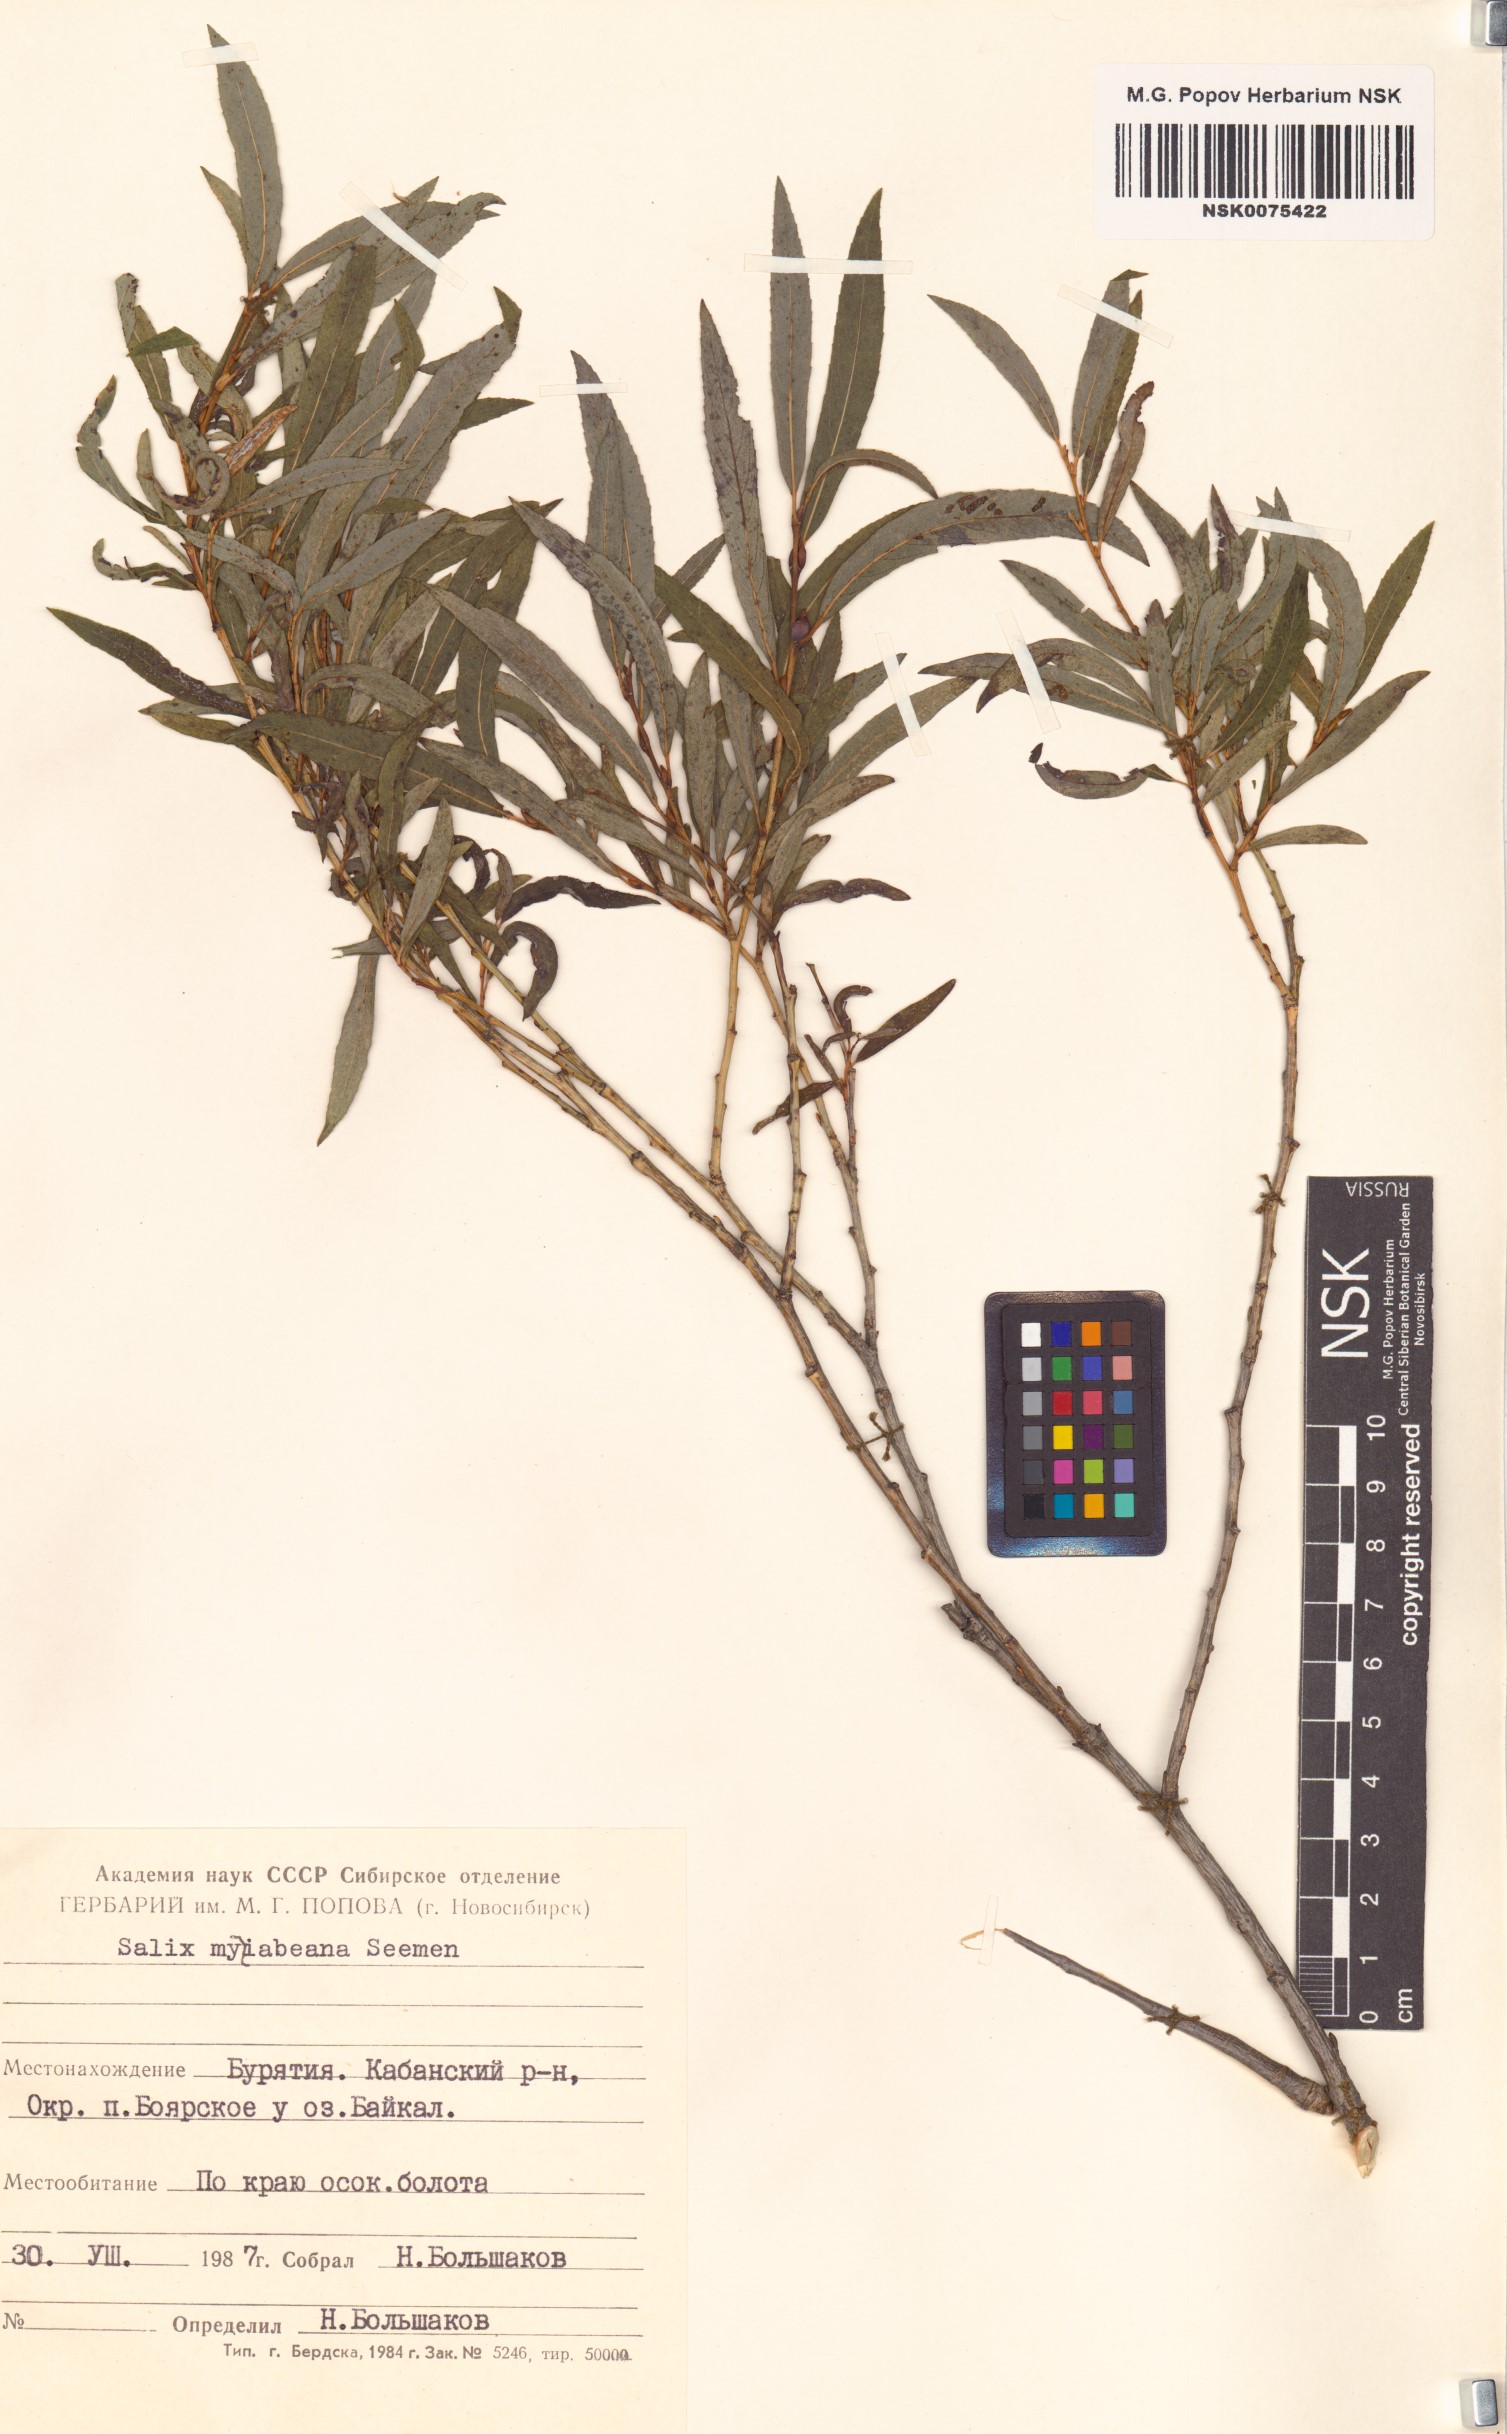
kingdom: Plantae
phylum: Tracheophyta
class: Magnoliopsida
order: Malpighiales
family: Salicaceae
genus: Salix
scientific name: Salix miyabeana
